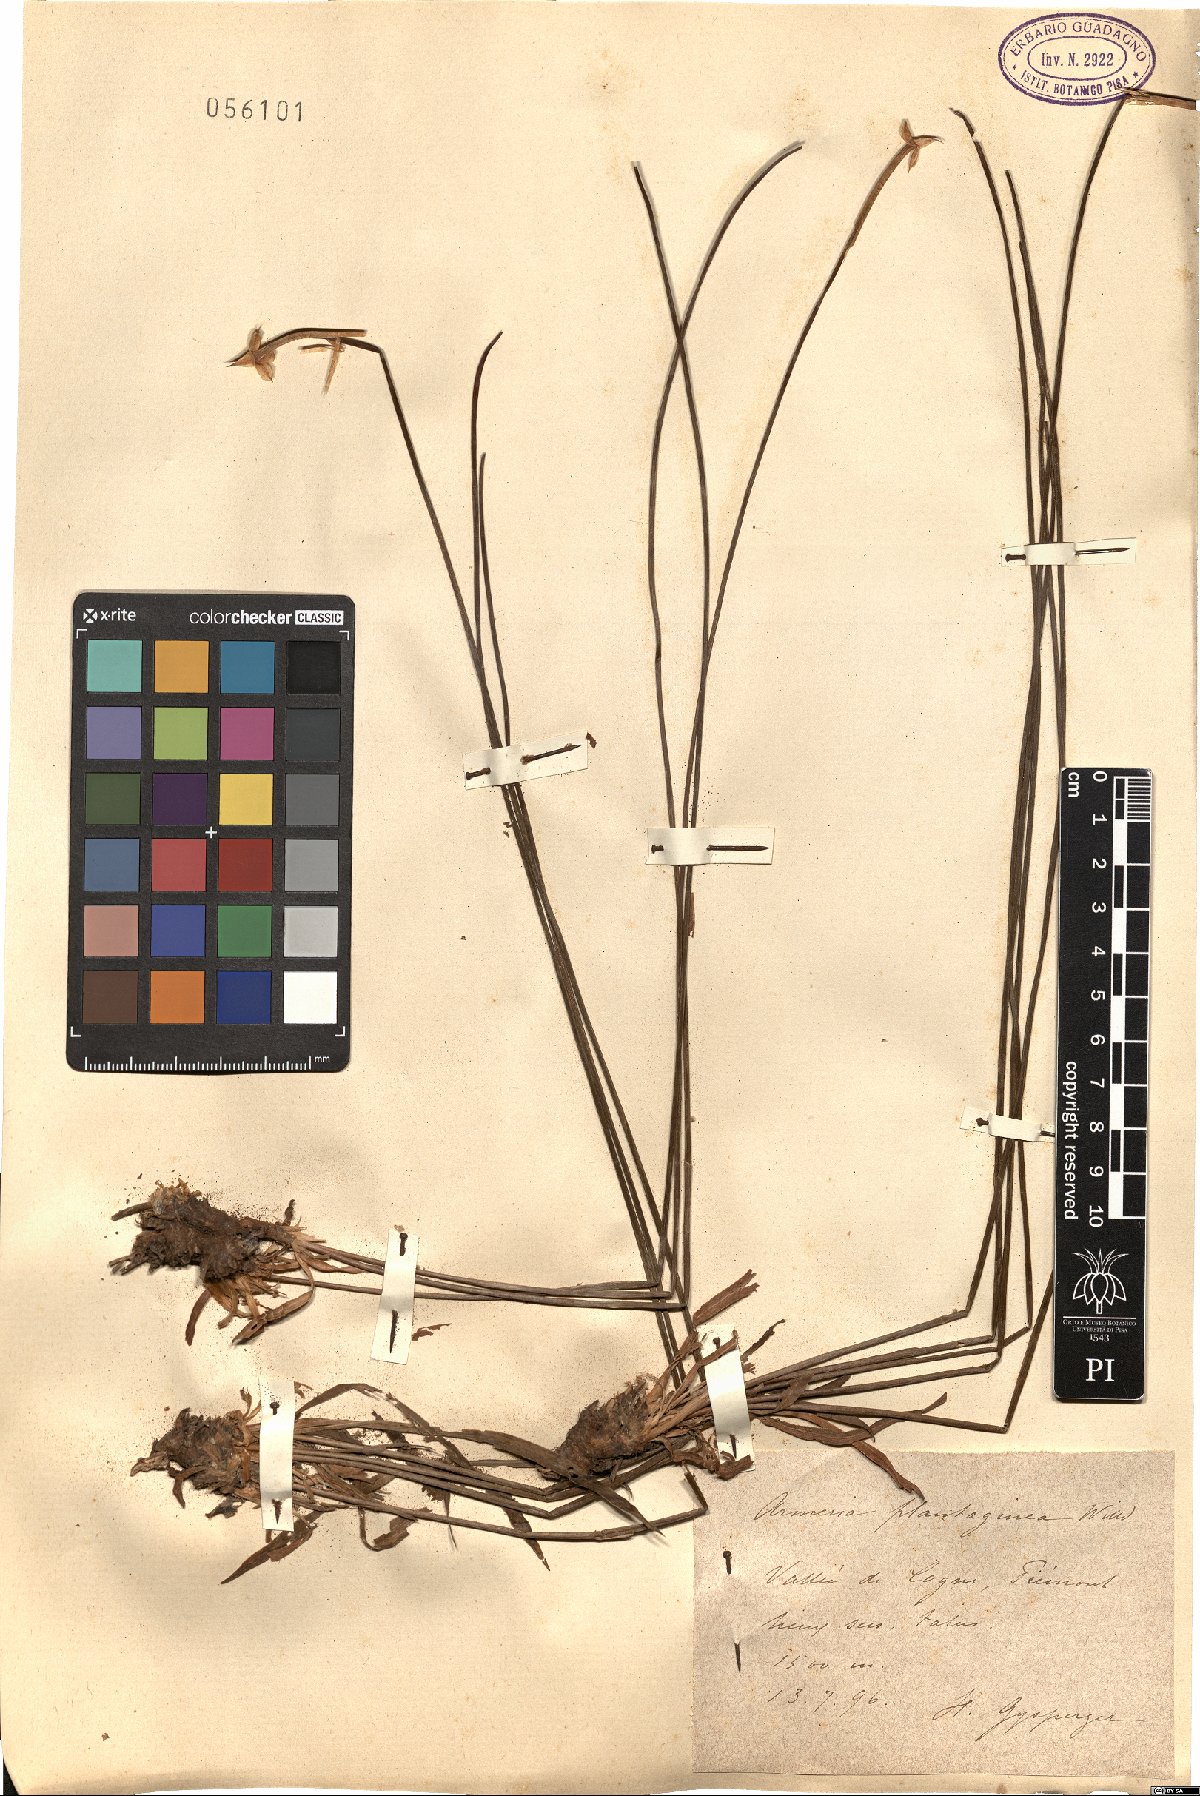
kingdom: Plantae
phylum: Tracheophyta
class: Magnoliopsida
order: Caryophyllales
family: Plumbaginaceae
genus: Armeria
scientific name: Armeria arenaria
